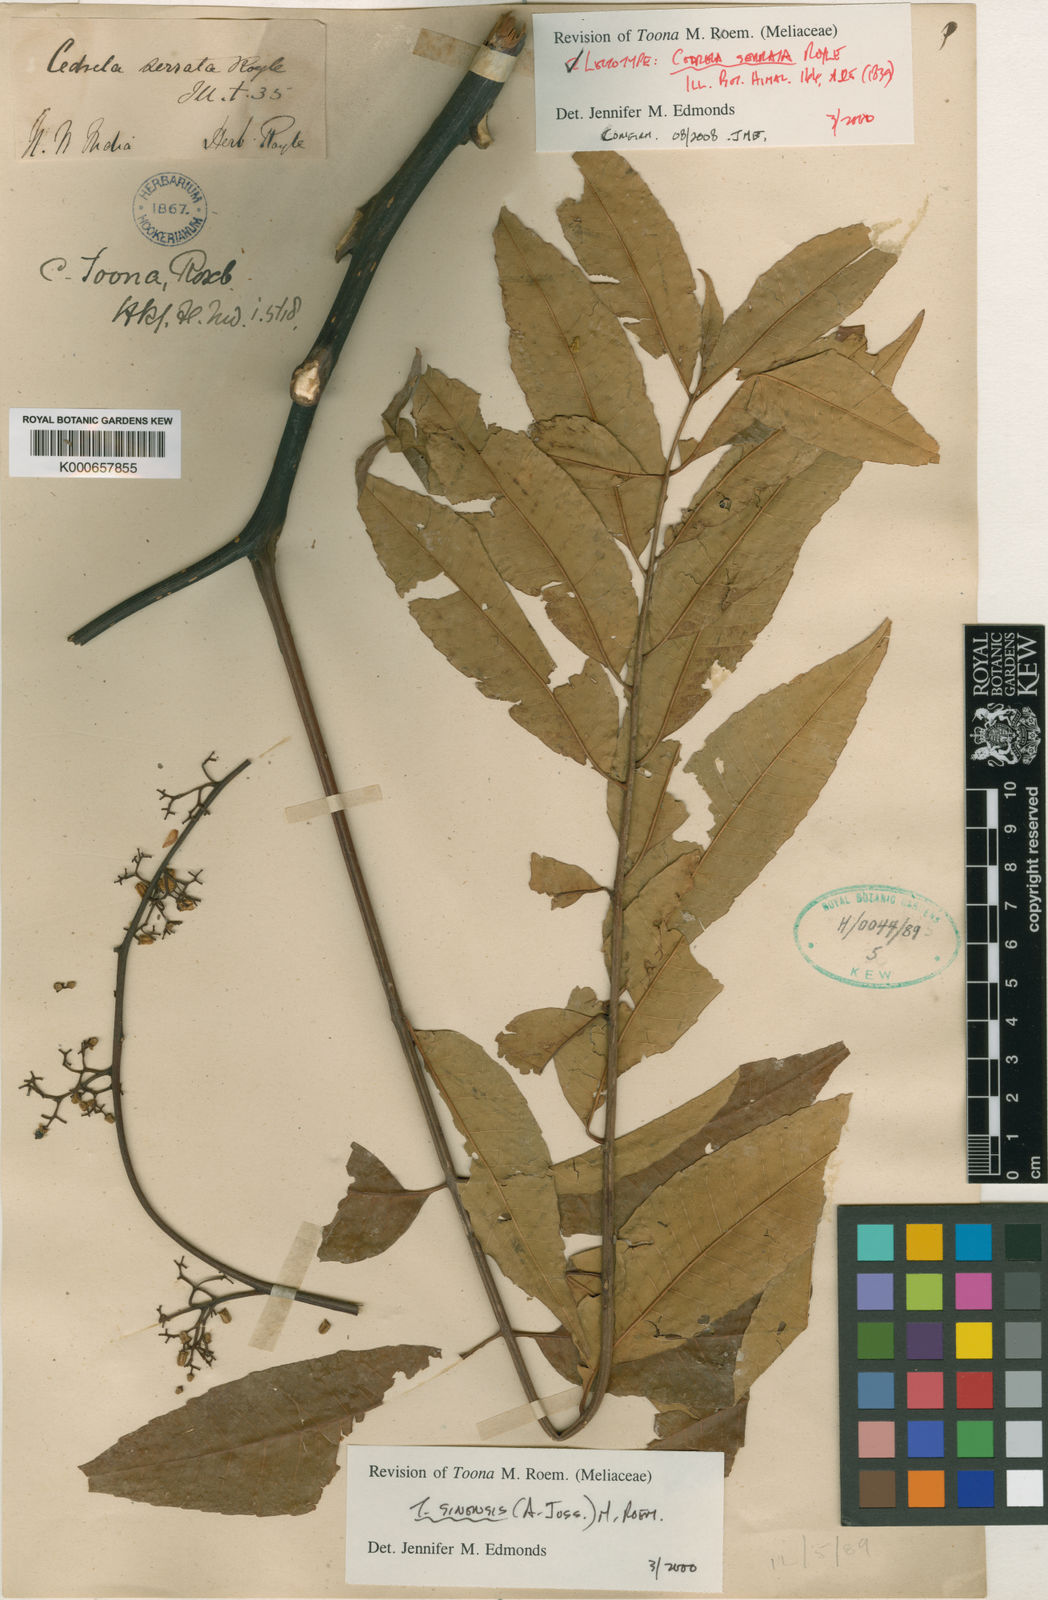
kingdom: Plantae
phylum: Tracheophyta
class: Magnoliopsida
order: Sapindales
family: Meliaceae
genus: Toona
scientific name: Toona sinensis
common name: Red toon
